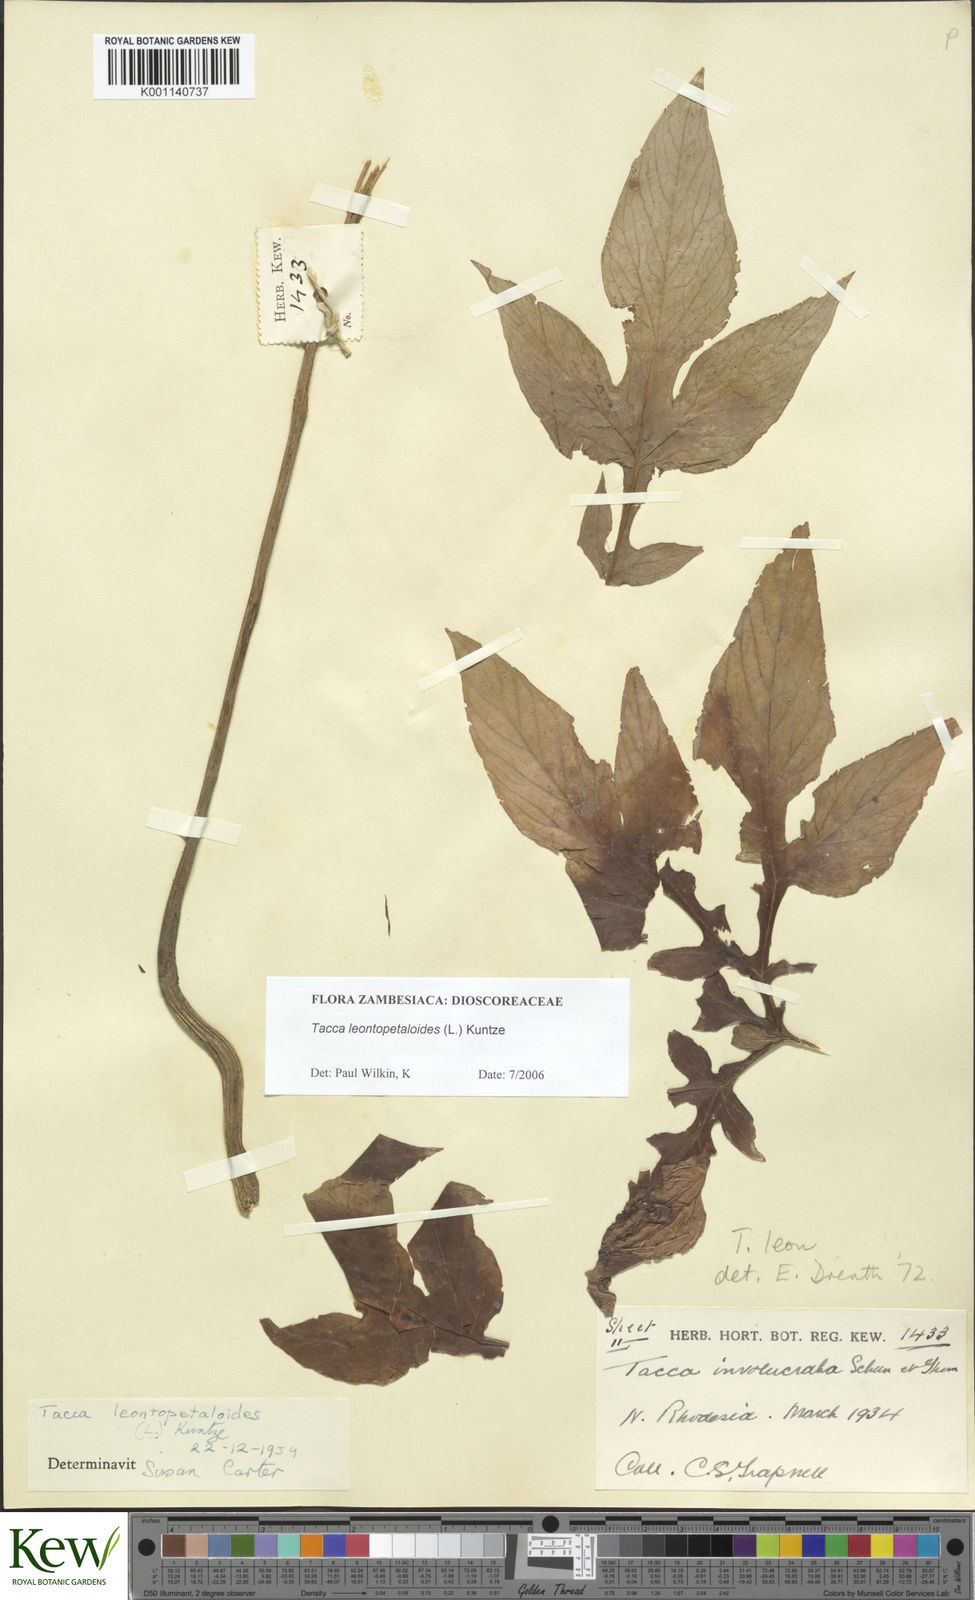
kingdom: Plantae
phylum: Tracheophyta
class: Liliopsida
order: Dioscoreales
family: Dioscoreaceae
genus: Tacca
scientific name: Tacca leontopetaloides
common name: Arrowroot
